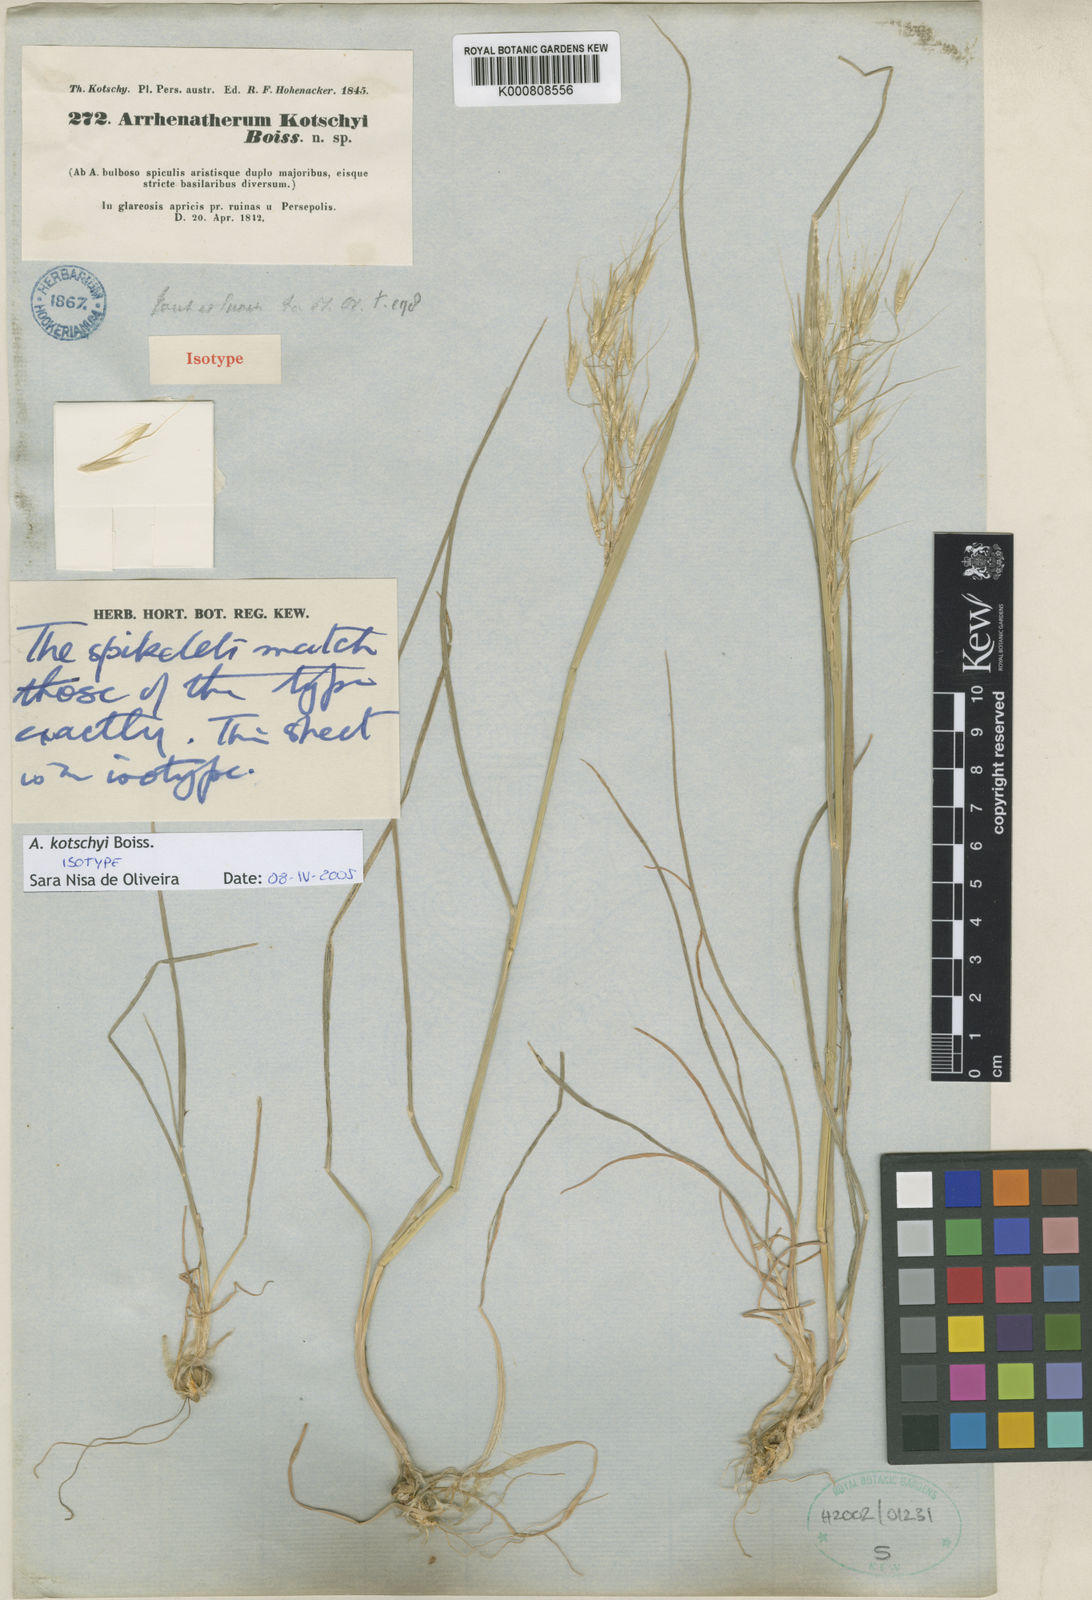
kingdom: Plantae
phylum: Tracheophyta
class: Liliopsida
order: Poales
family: Poaceae
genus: Arrhenatherum
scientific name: Arrhenatherum kotschyi
